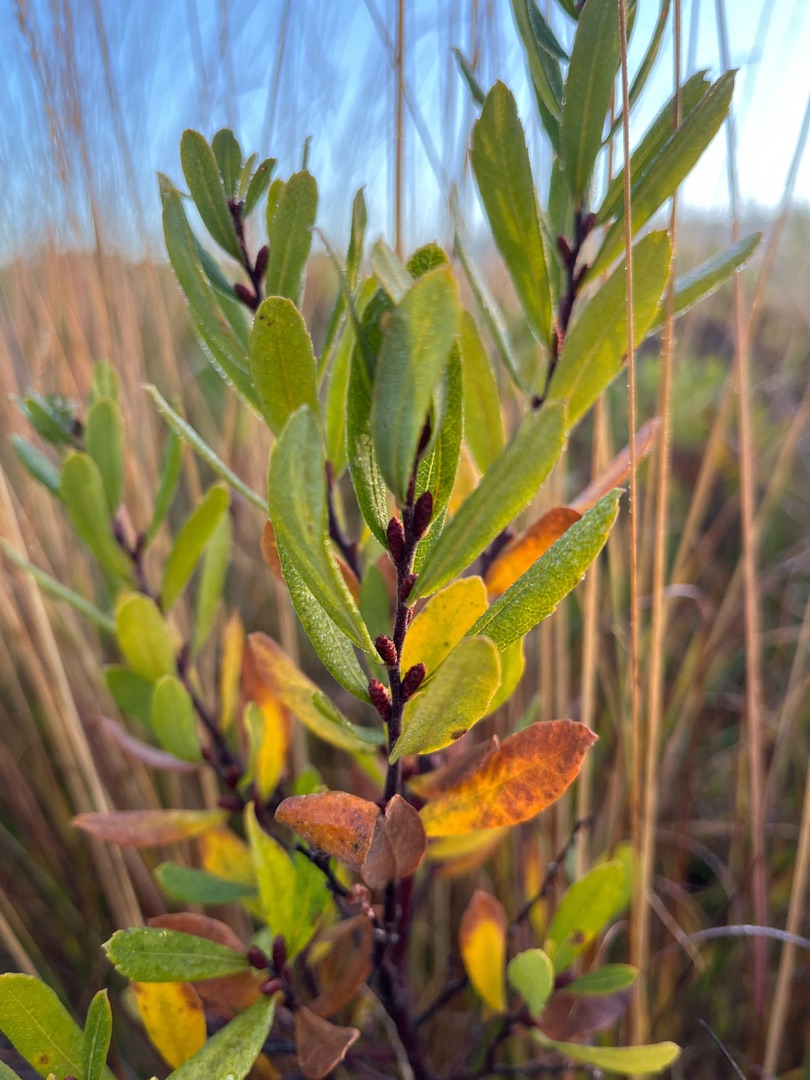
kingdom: Plantae
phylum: Tracheophyta
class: Magnoliopsida
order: Fagales
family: Myricaceae
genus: Myrica
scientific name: Myrica gale
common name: Pors
